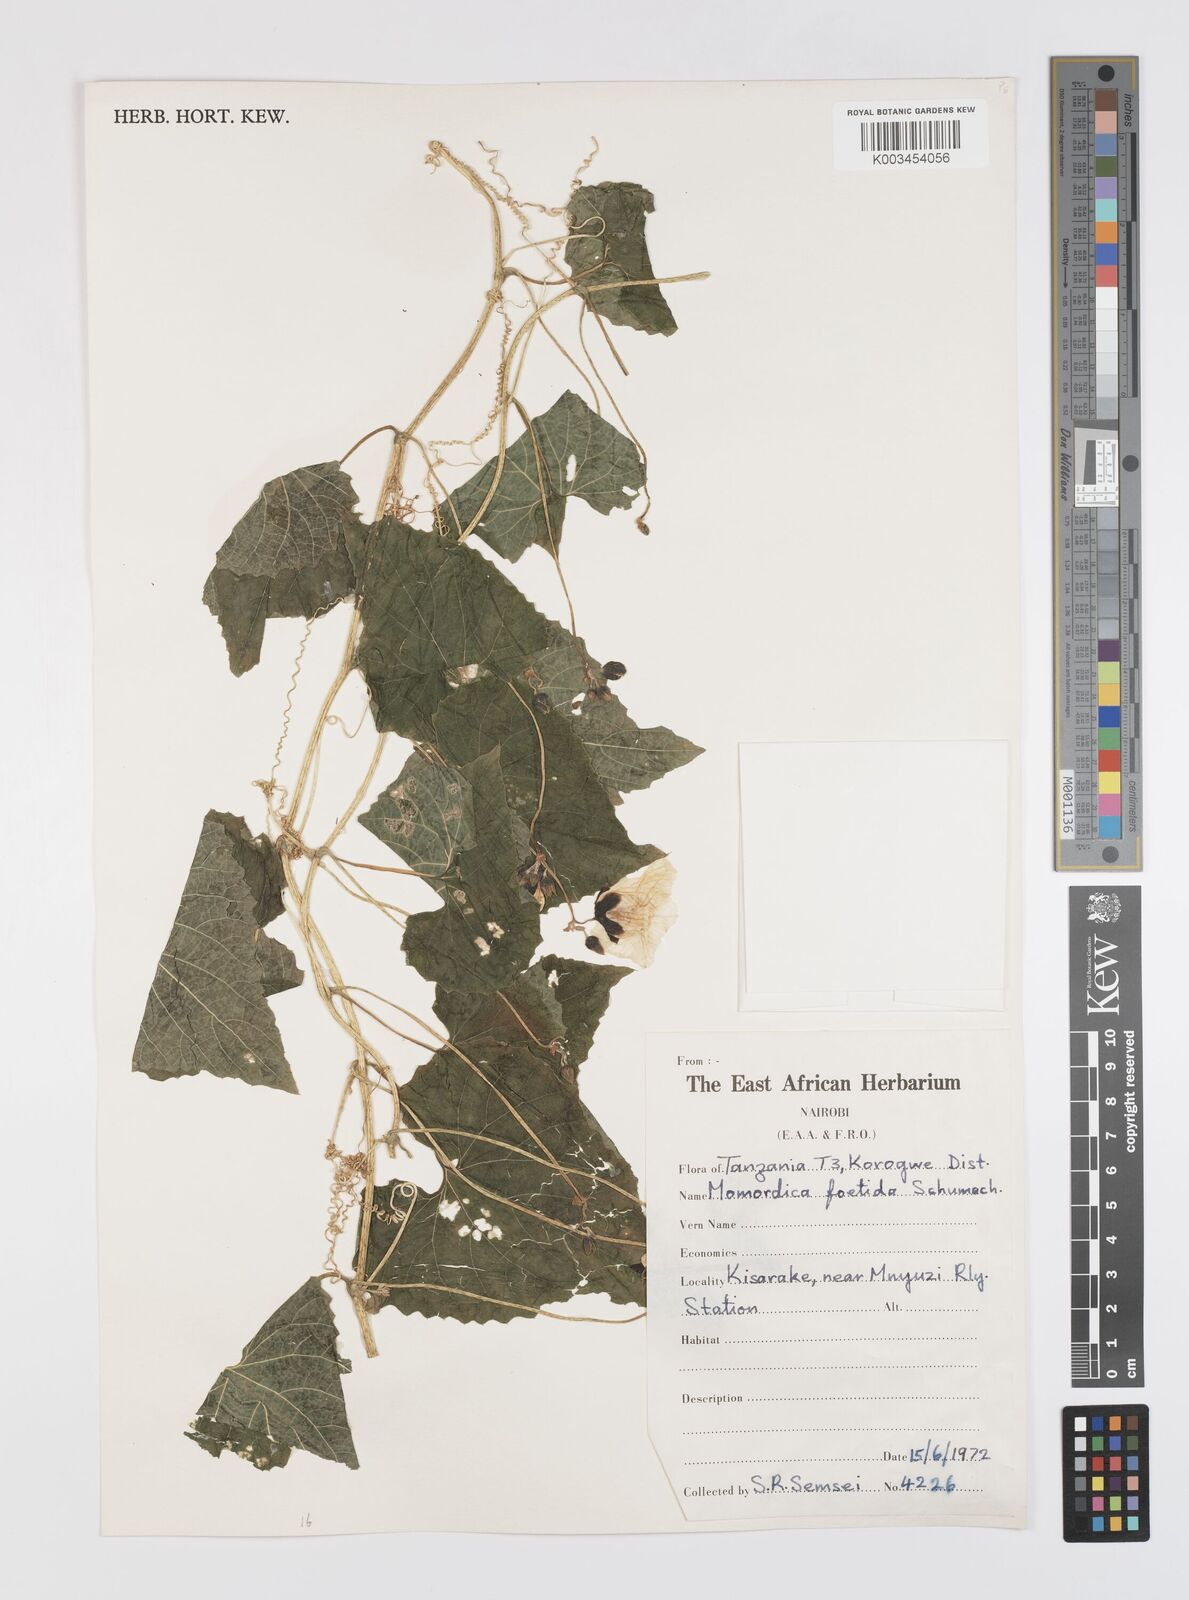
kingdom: Plantae
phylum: Tracheophyta
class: Magnoliopsida
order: Cucurbitales
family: Cucurbitaceae
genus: Momordica
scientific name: Momordica foetida
